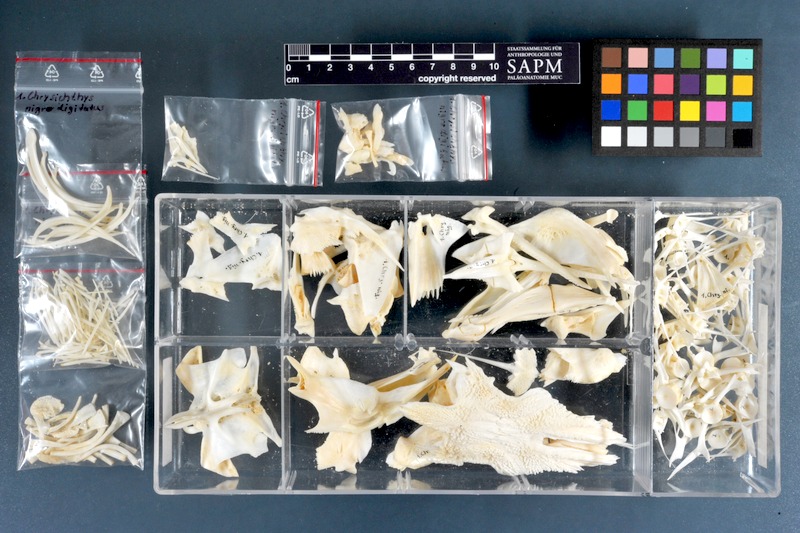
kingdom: Animalia
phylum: Chordata
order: Siluriformes
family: Claroteidae
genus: Chrysichthys
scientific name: Chrysichthys nigrodigitatus
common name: Bagrid catfish
